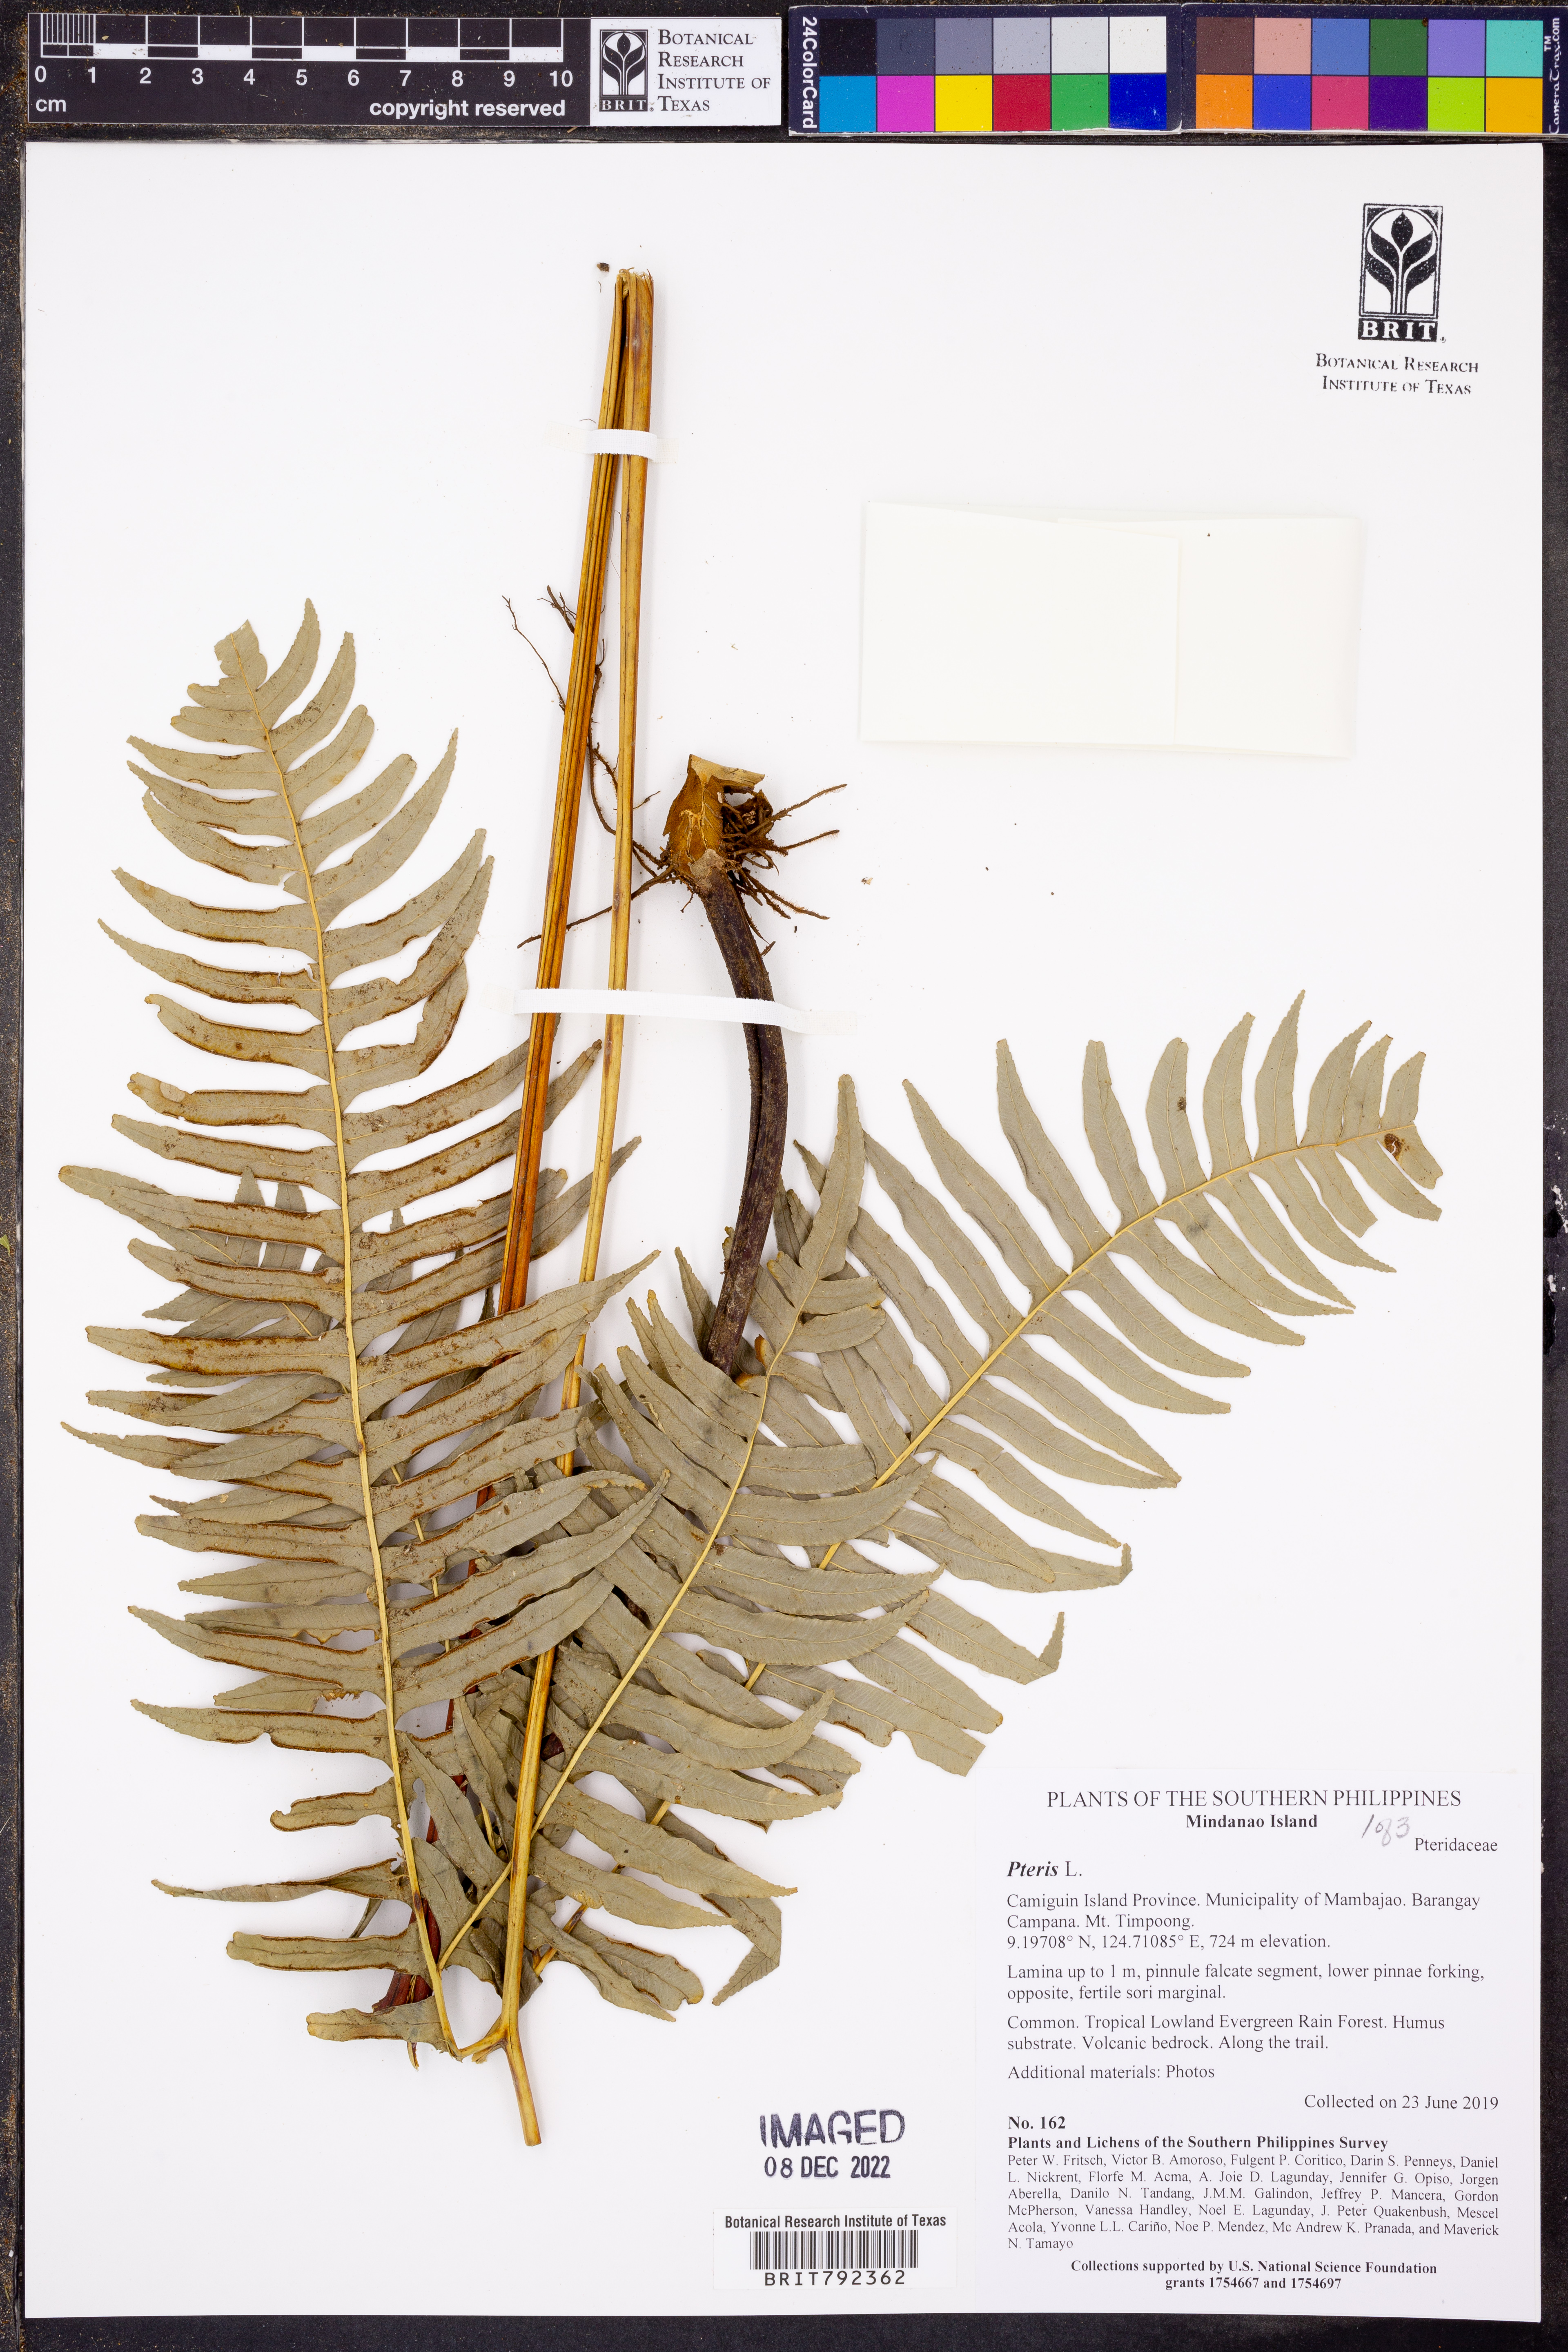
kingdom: Plantae
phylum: Tracheophyta
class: Polypodiopsida
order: Polypodiales
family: Pteridaceae
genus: Pteris
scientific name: Pteris
